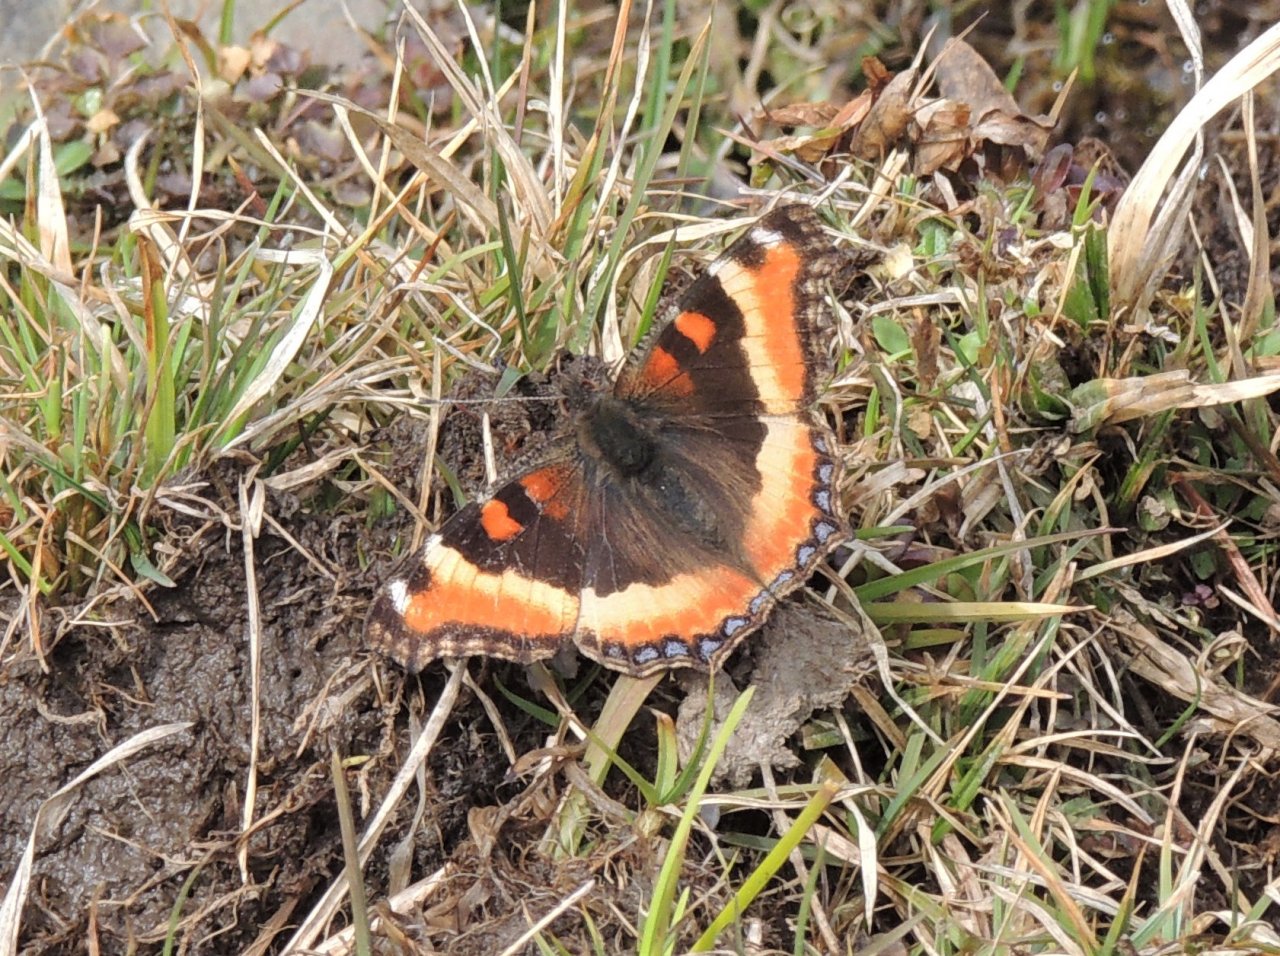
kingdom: Animalia
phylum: Arthropoda
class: Insecta
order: Lepidoptera
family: Nymphalidae
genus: Aglais
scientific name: Aglais milberti
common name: Milbert's Tortoiseshell
